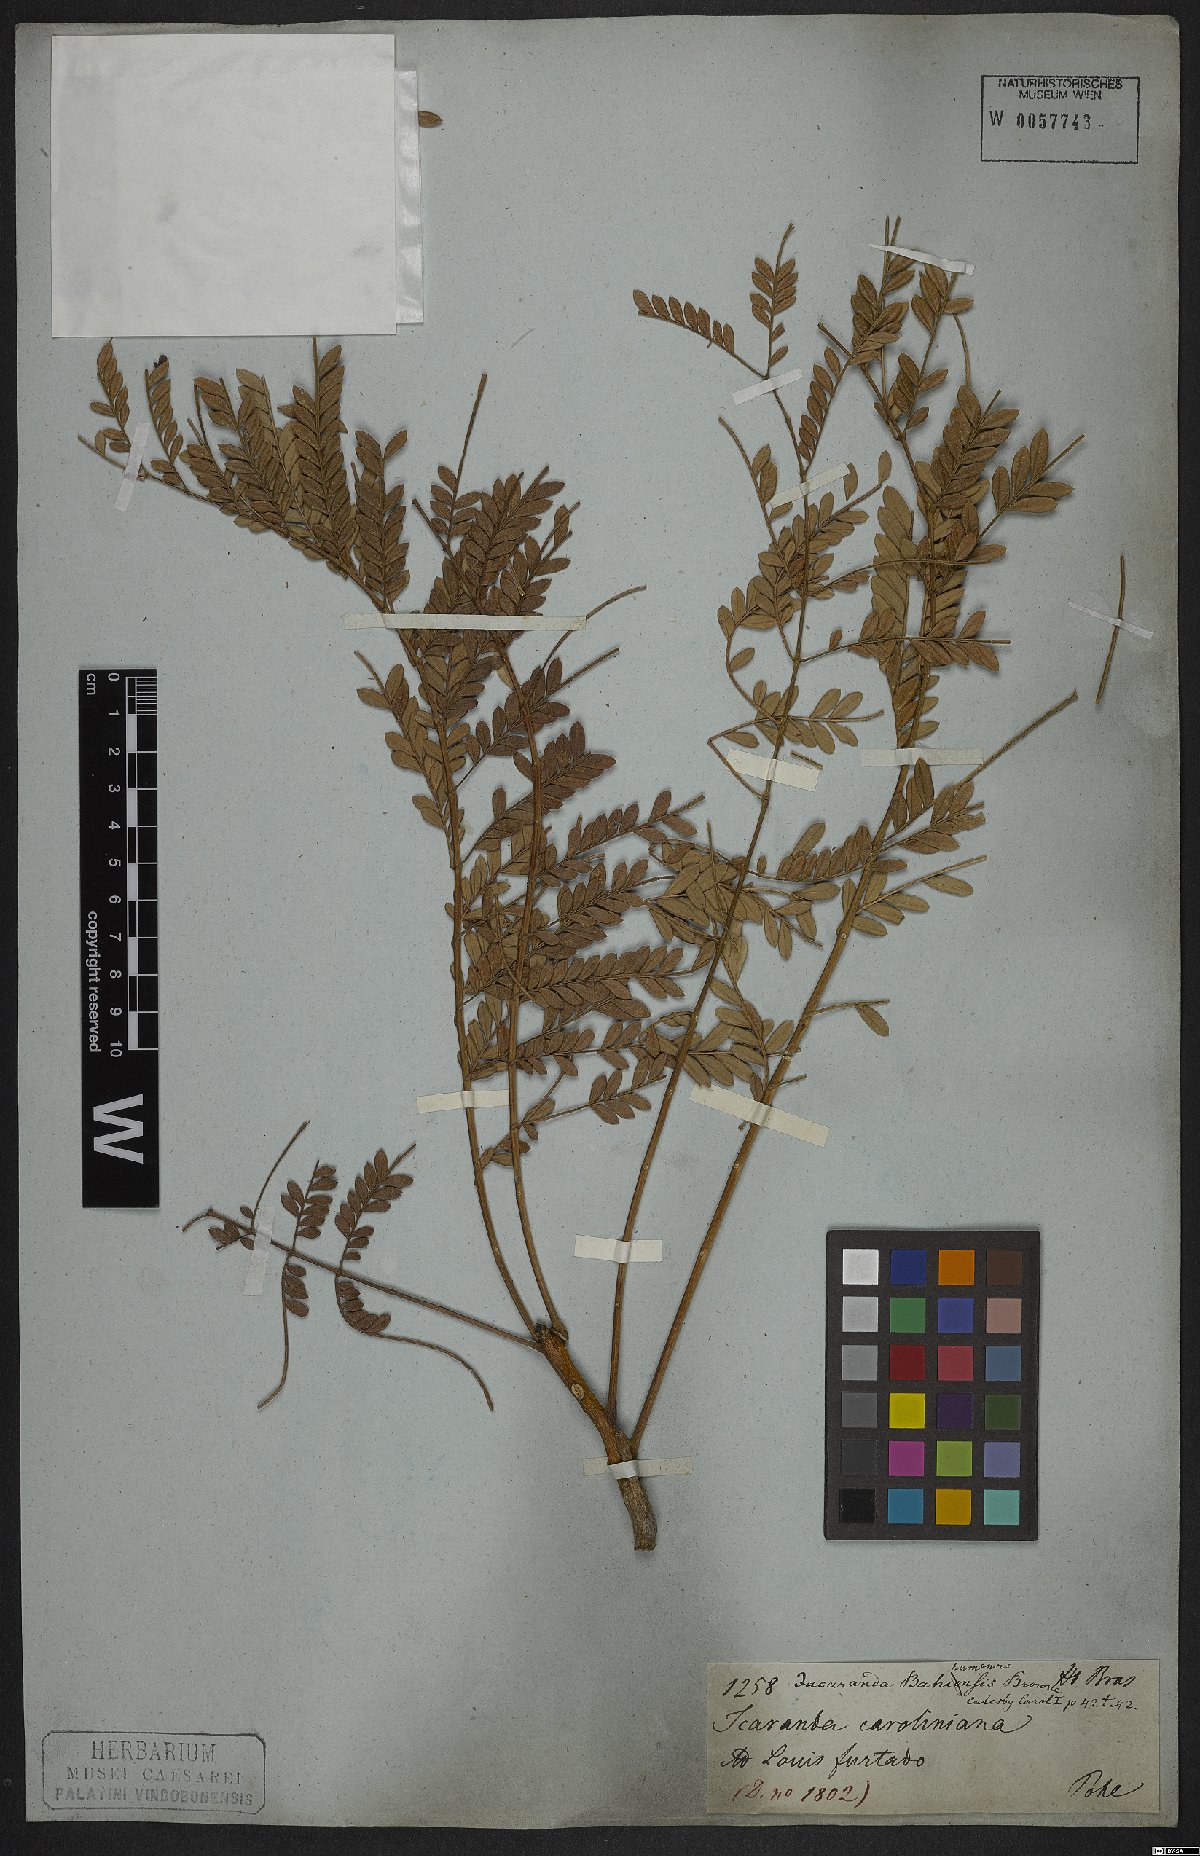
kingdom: Plantae
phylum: Tracheophyta
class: Magnoliopsida
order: Lamiales
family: Bignoniaceae
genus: Jacaranda
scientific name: Jacaranda brasiliana
